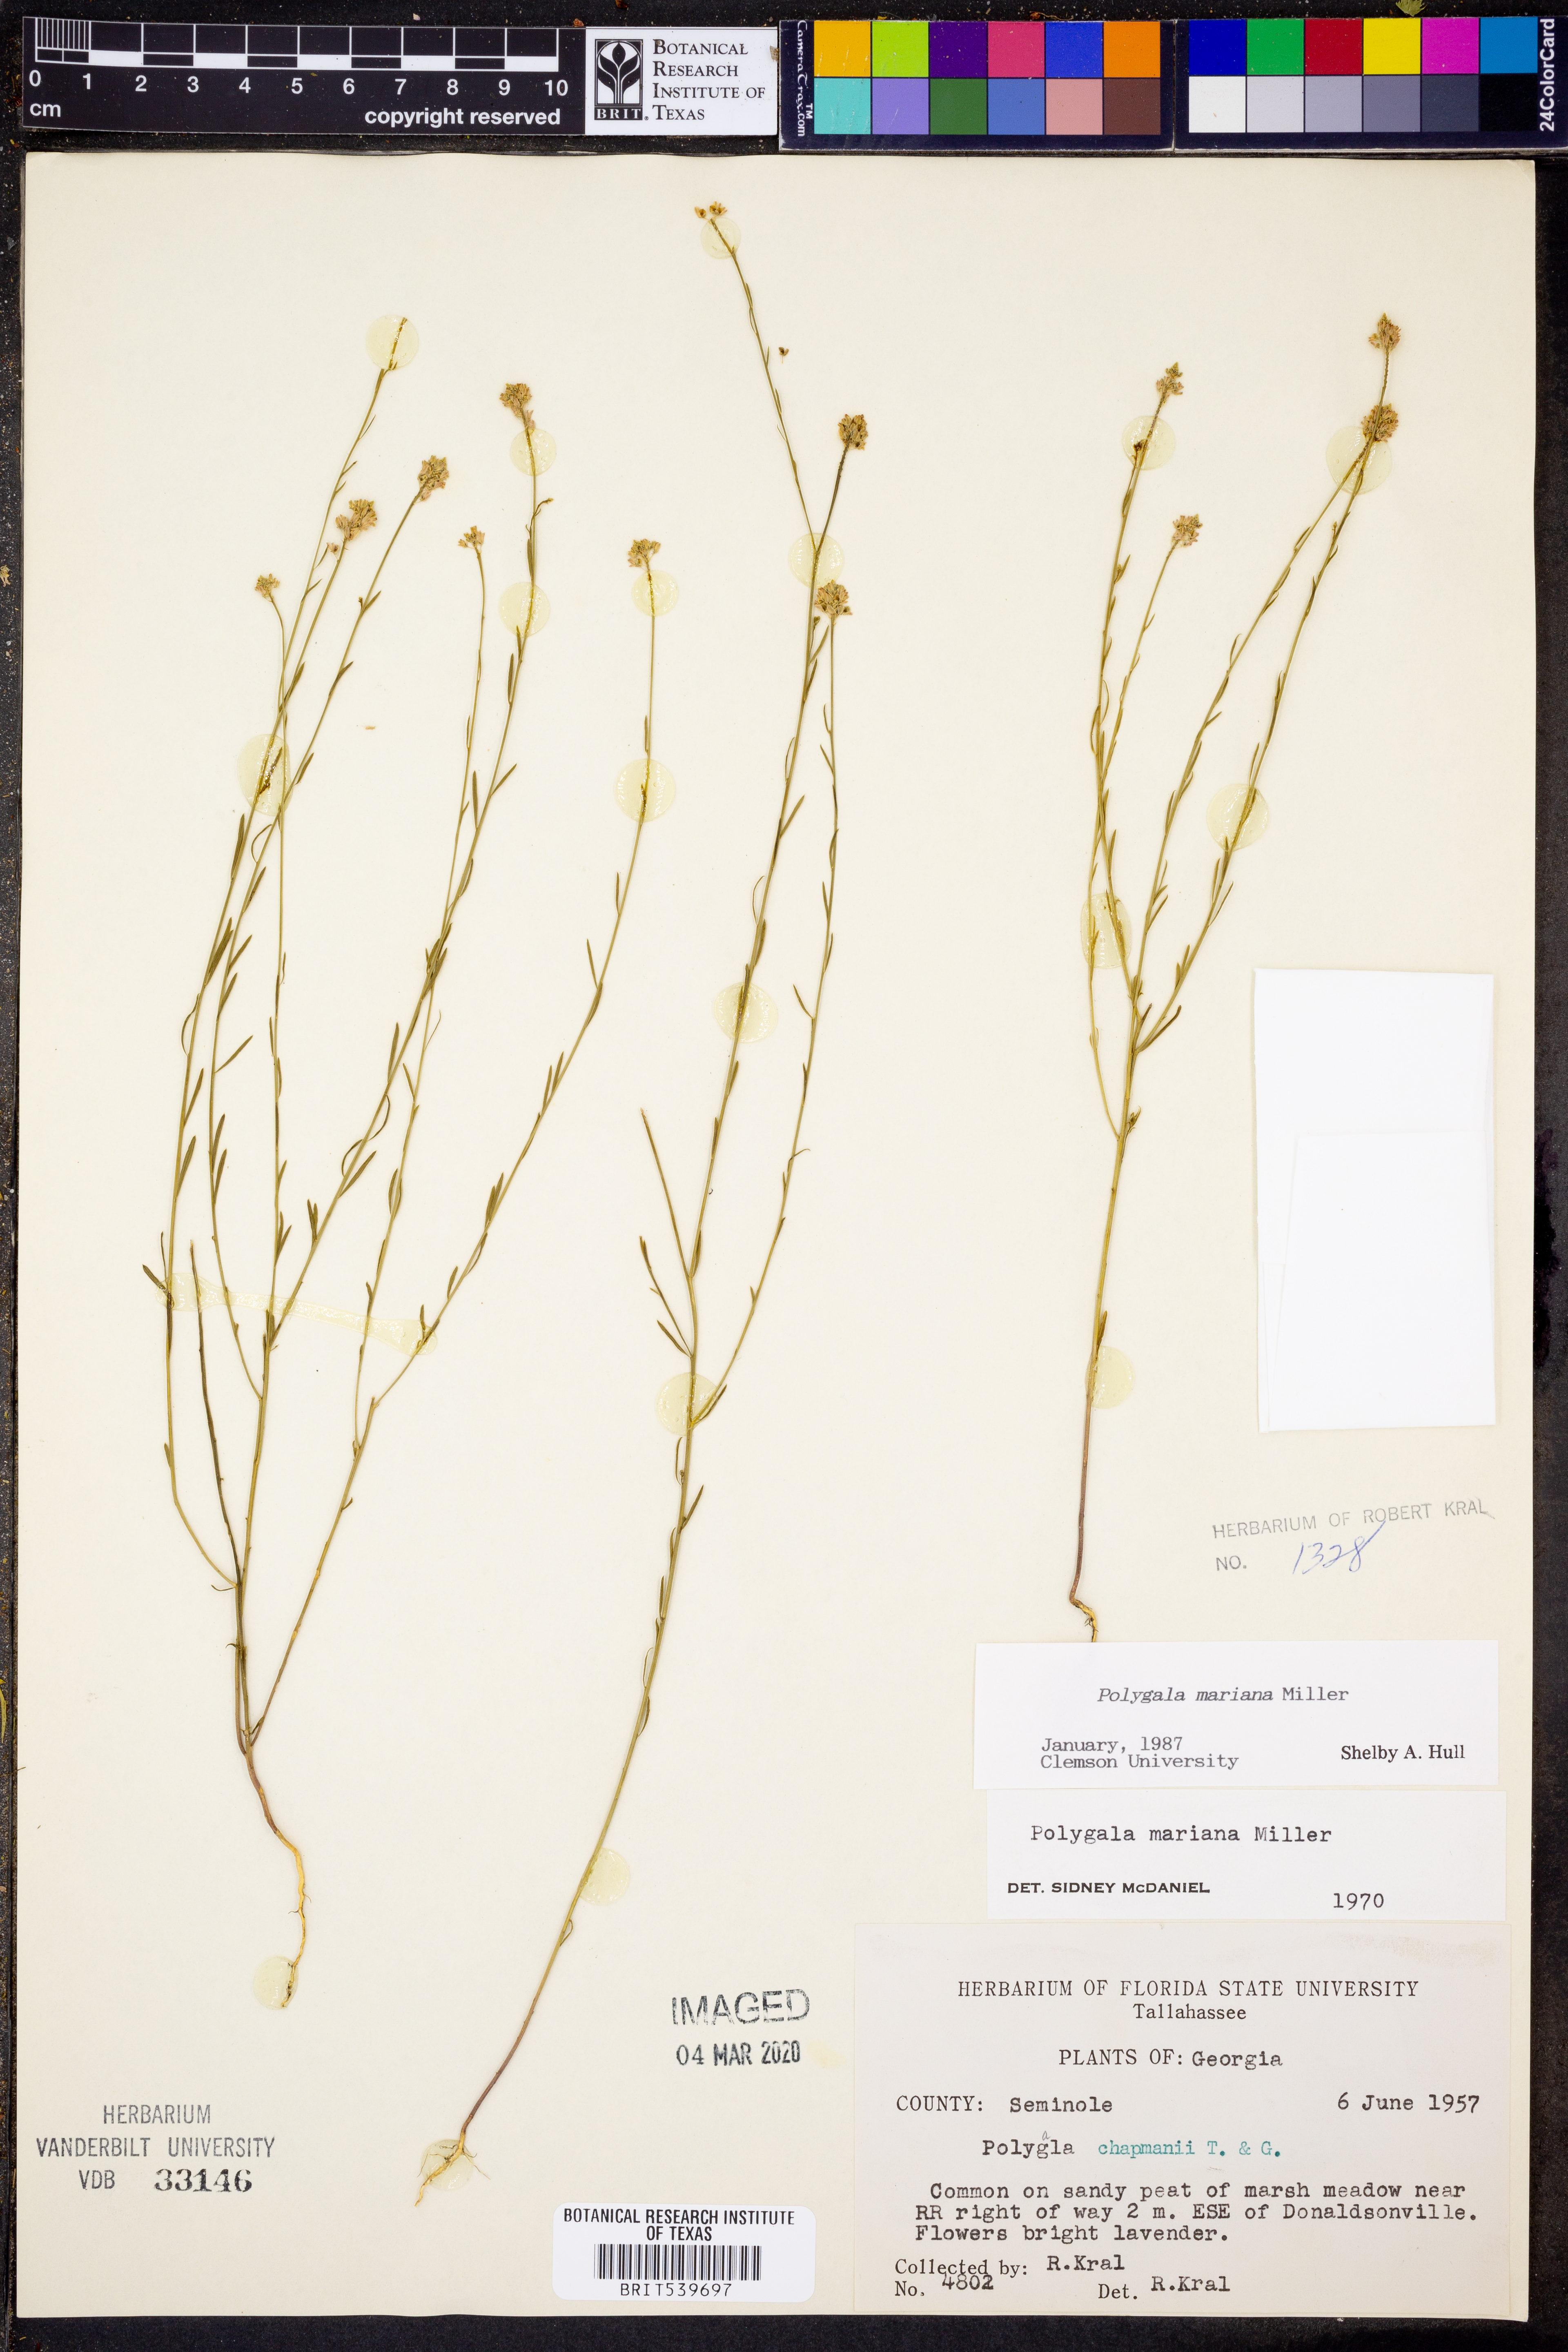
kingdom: Plantae
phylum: Tracheophyta
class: Magnoliopsida
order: Fabales
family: Polygalaceae
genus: Polygala
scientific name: Polygala mariana
